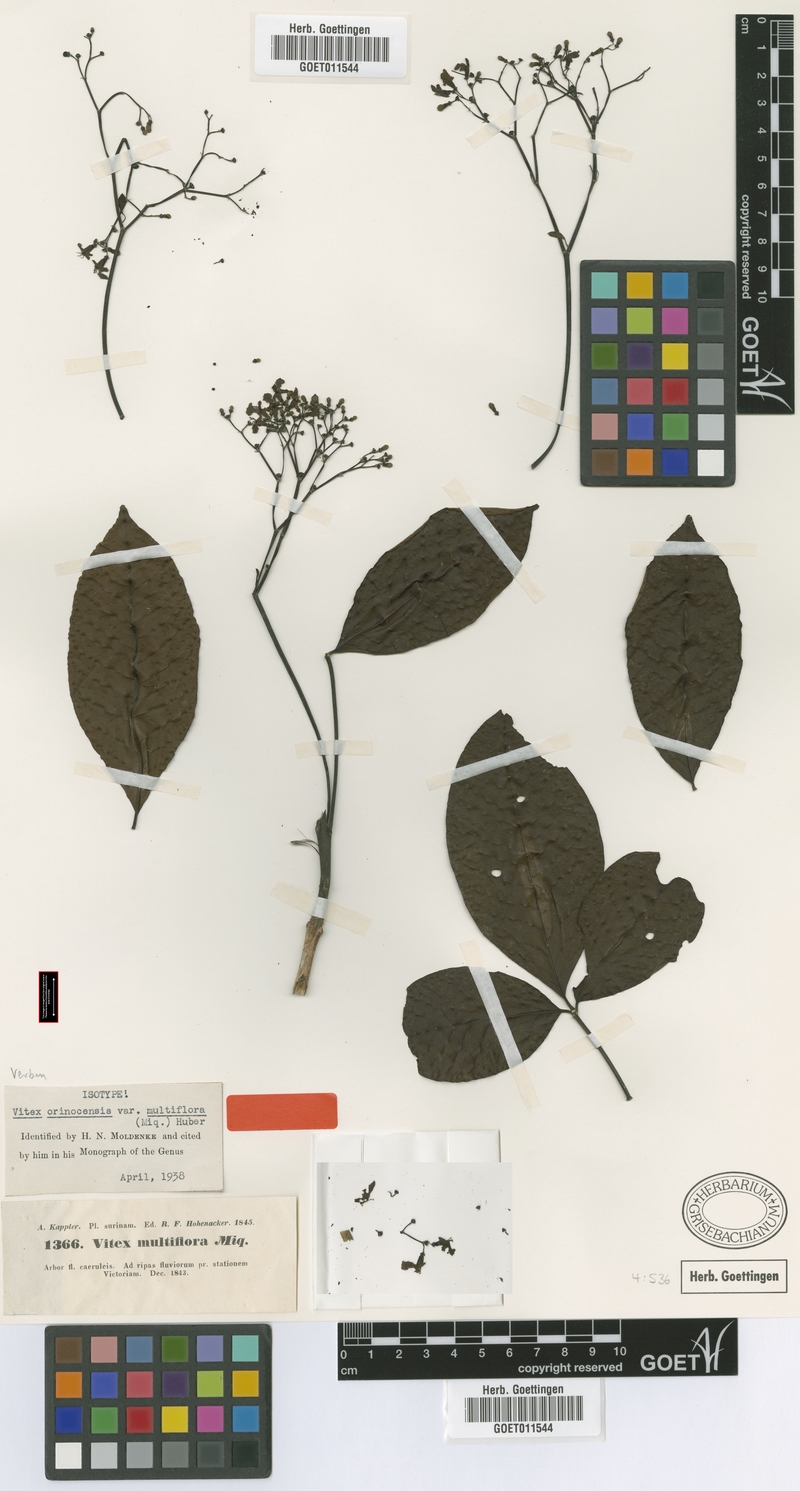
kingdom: Plantae
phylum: Tracheophyta
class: Magnoliopsida
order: Lamiales
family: Lamiaceae
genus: Vitex
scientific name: Vitex orinocensis
